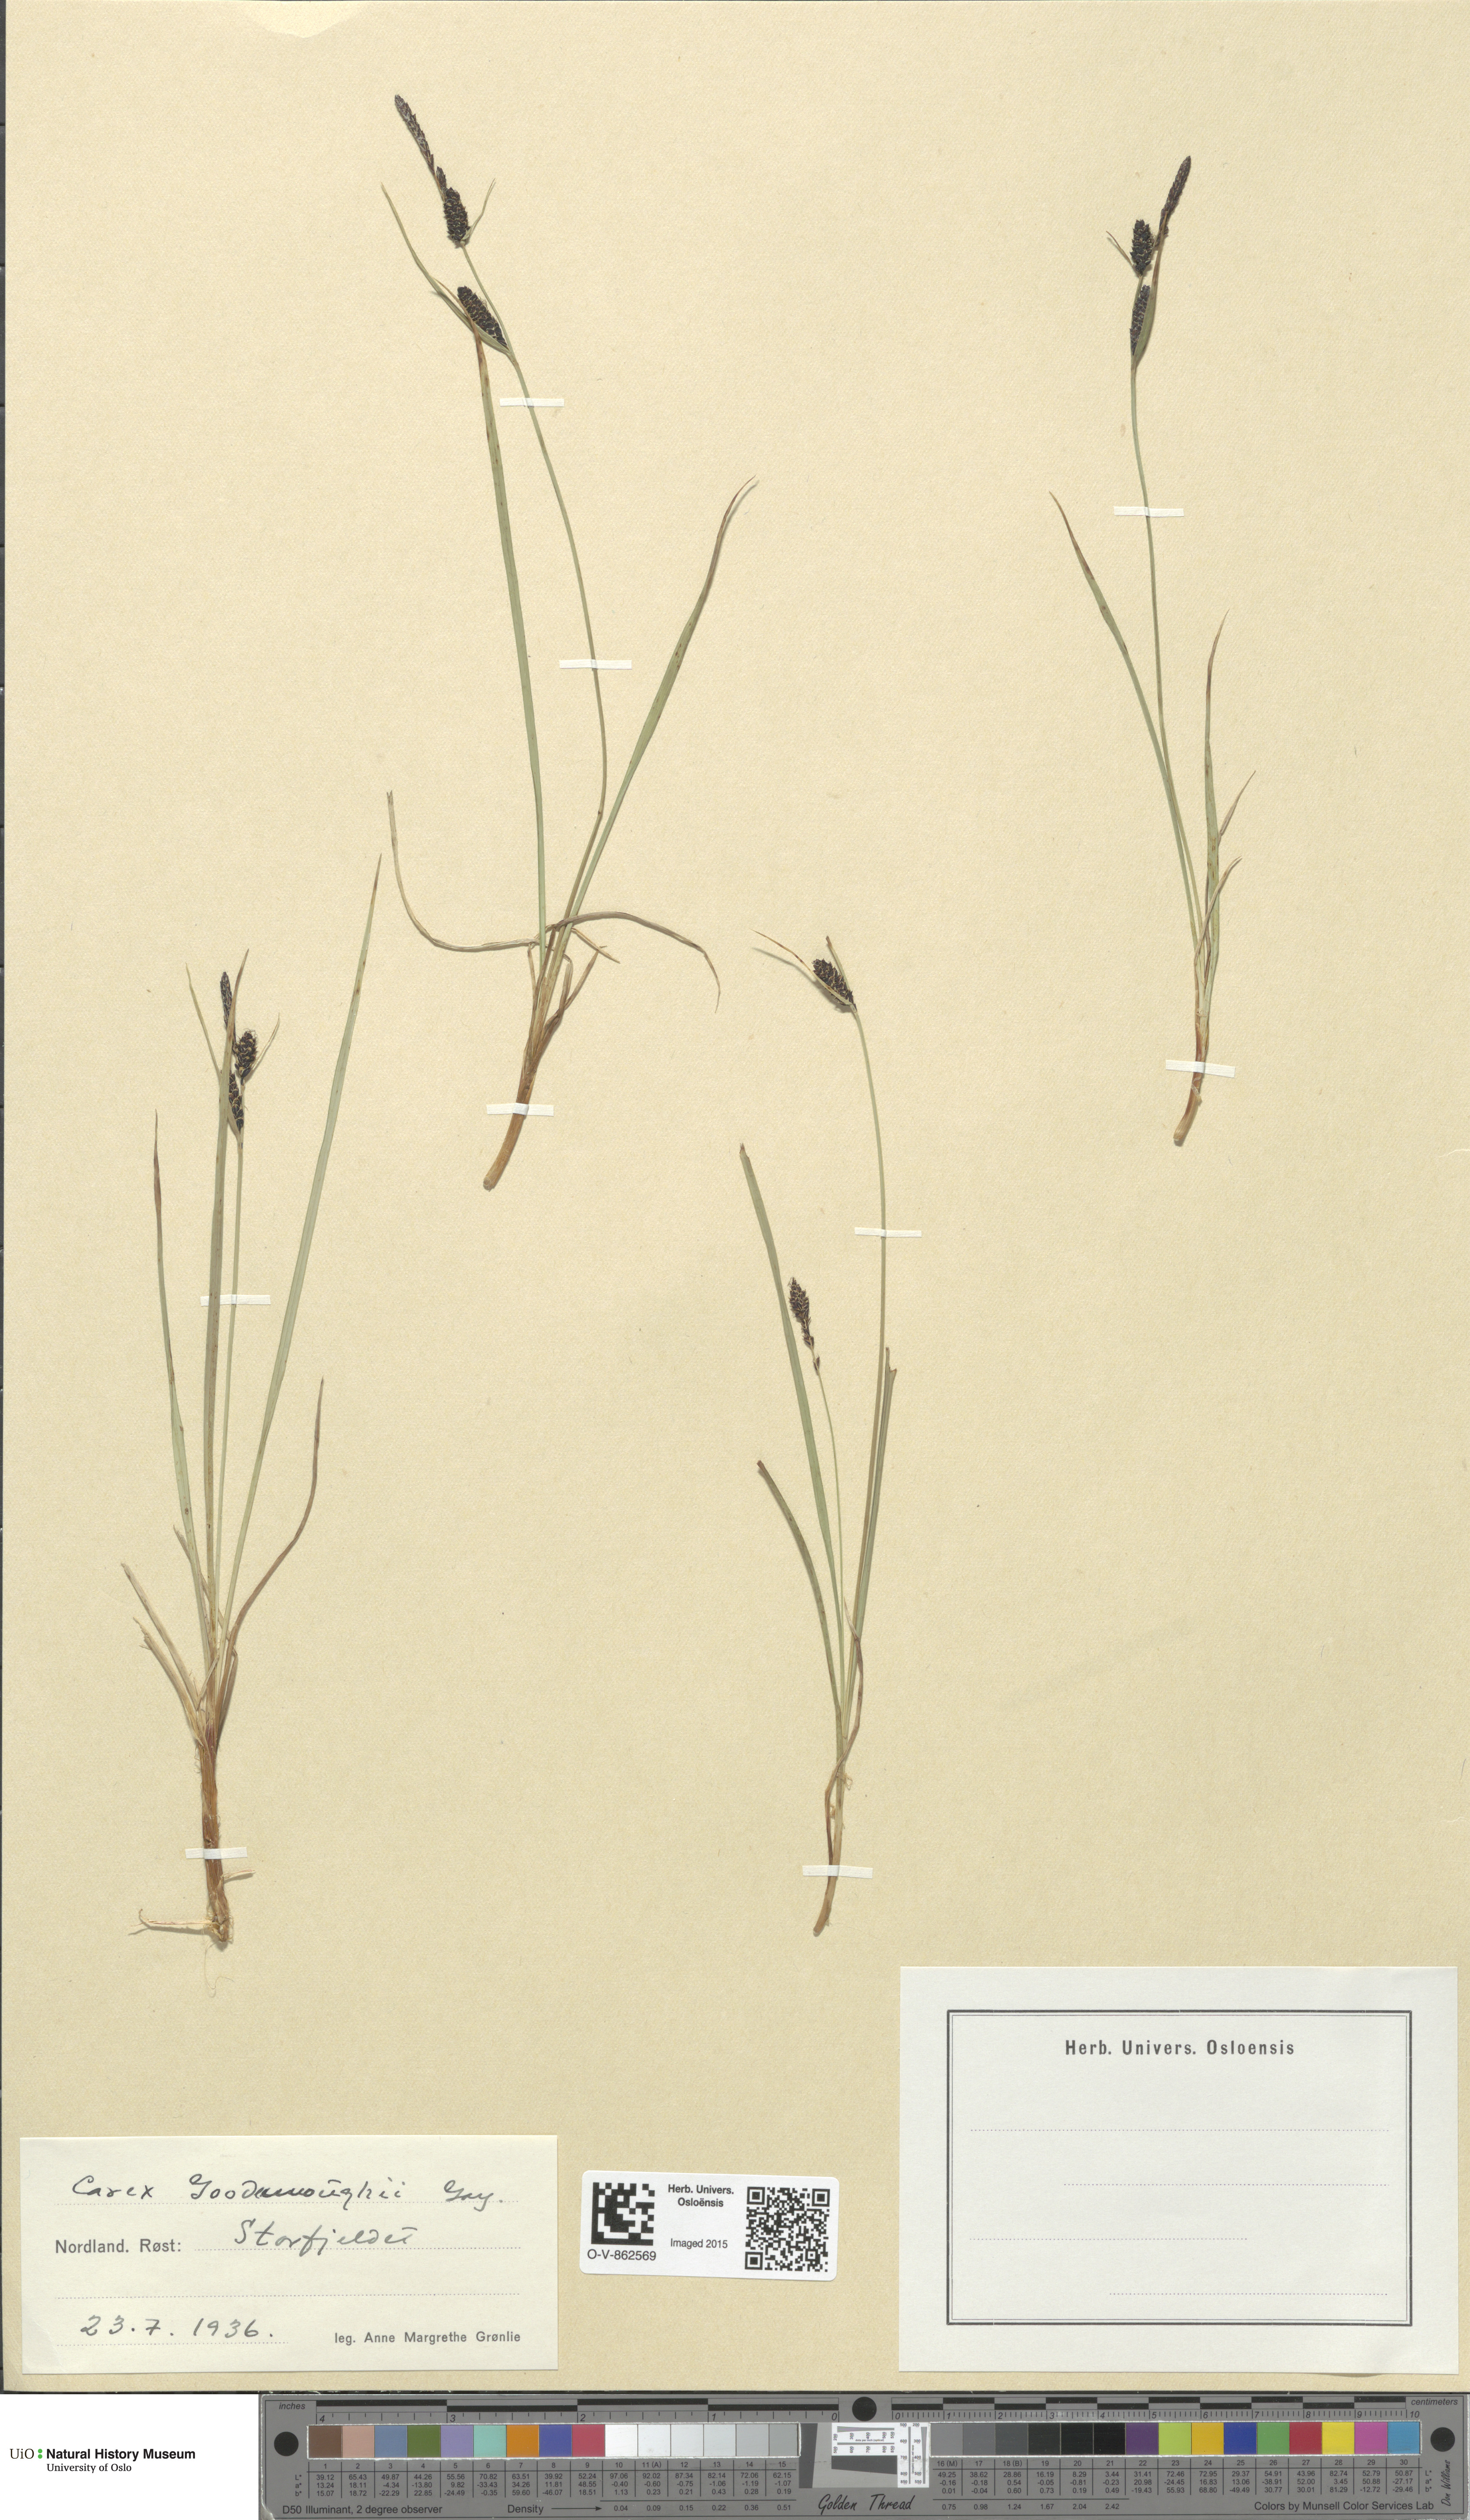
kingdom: Plantae
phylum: Tracheophyta
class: Liliopsida
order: Poales
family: Cyperaceae
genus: Carex
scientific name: Carex nigra
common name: Common sedge
